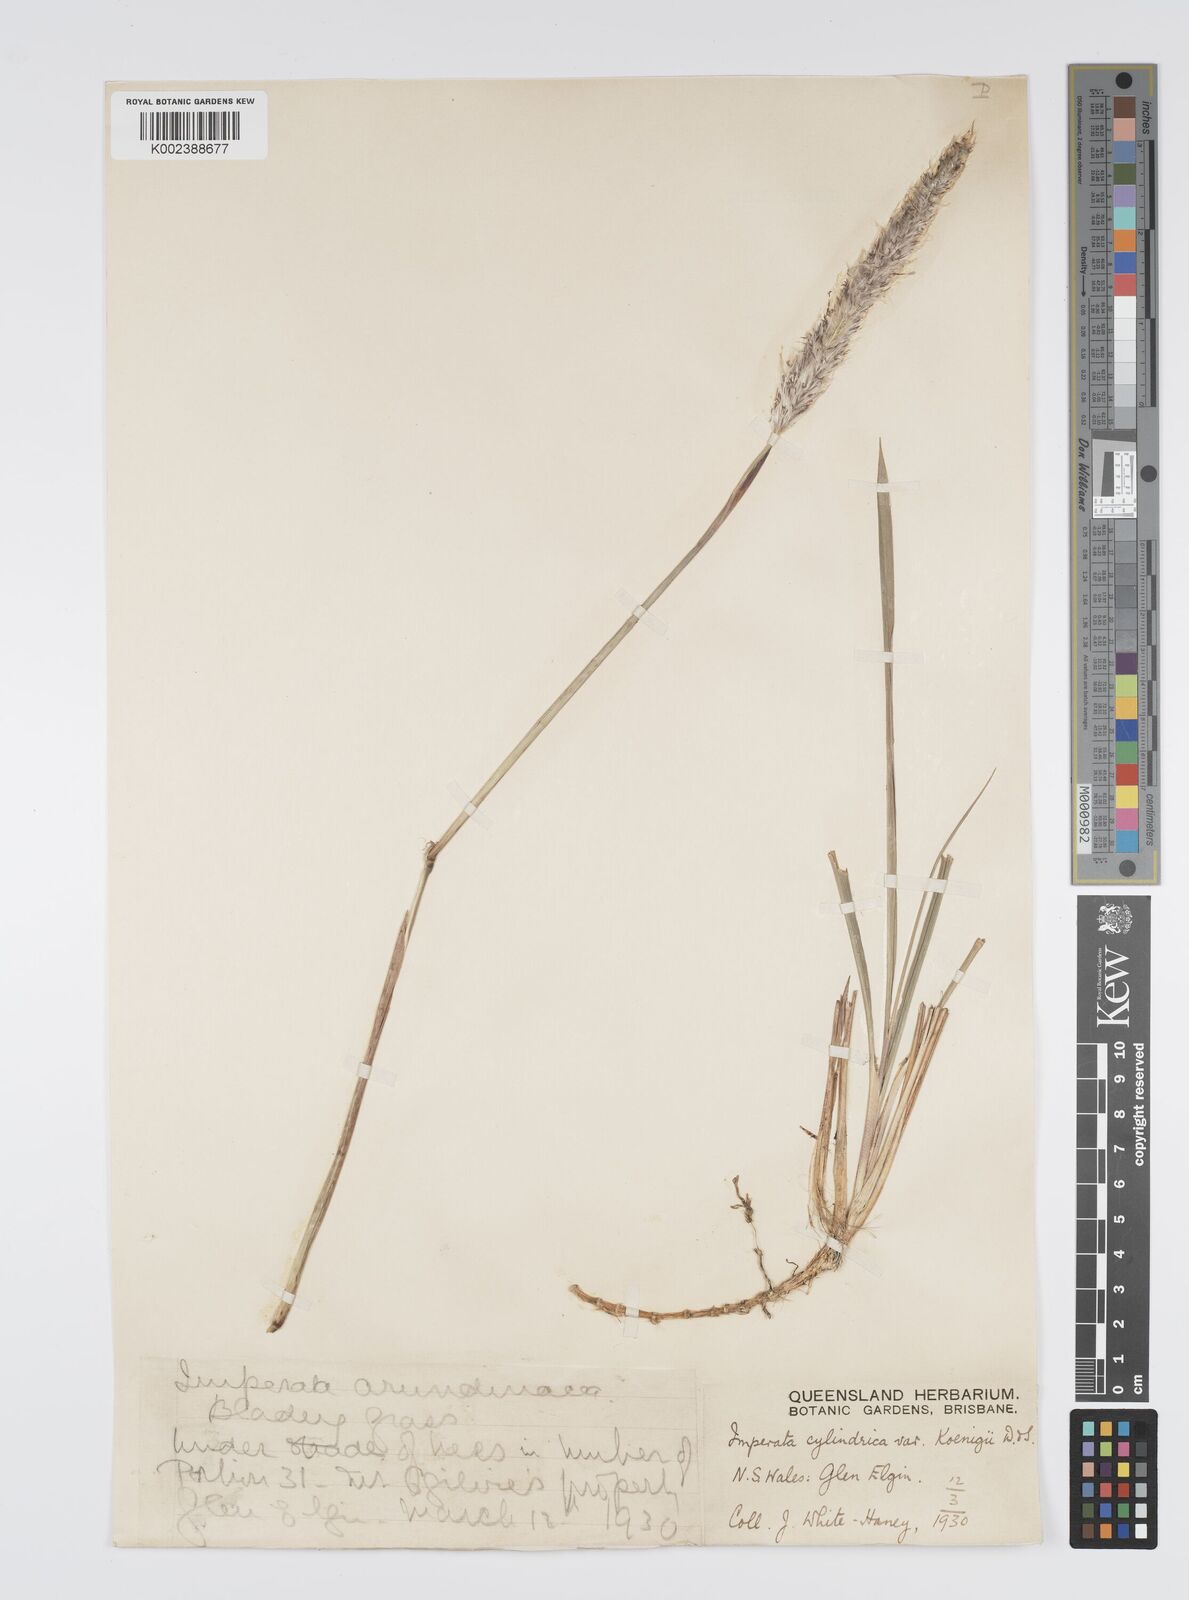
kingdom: Plantae
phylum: Tracheophyta
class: Liliopsida
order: Poales
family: Poaceae
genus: Imperata
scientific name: Imperata cylindrica
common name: Cogongrass
